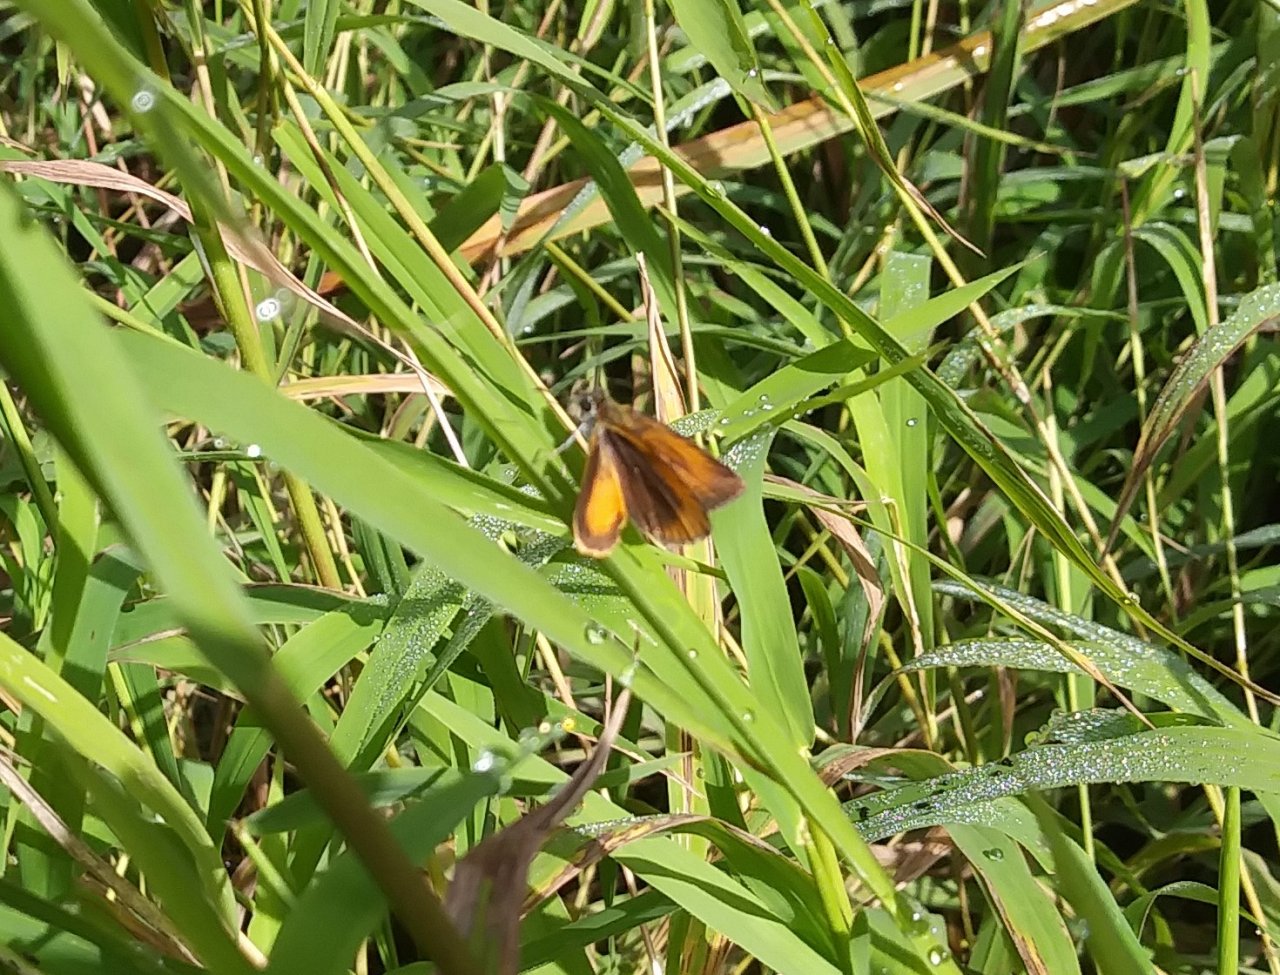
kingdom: Animalia
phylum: Arthropoda
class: Insecta
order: Lepidoptera
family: Hesperiidae
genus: Ancyloxypha
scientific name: Ancyloxypha numitor
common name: Least Skipper
